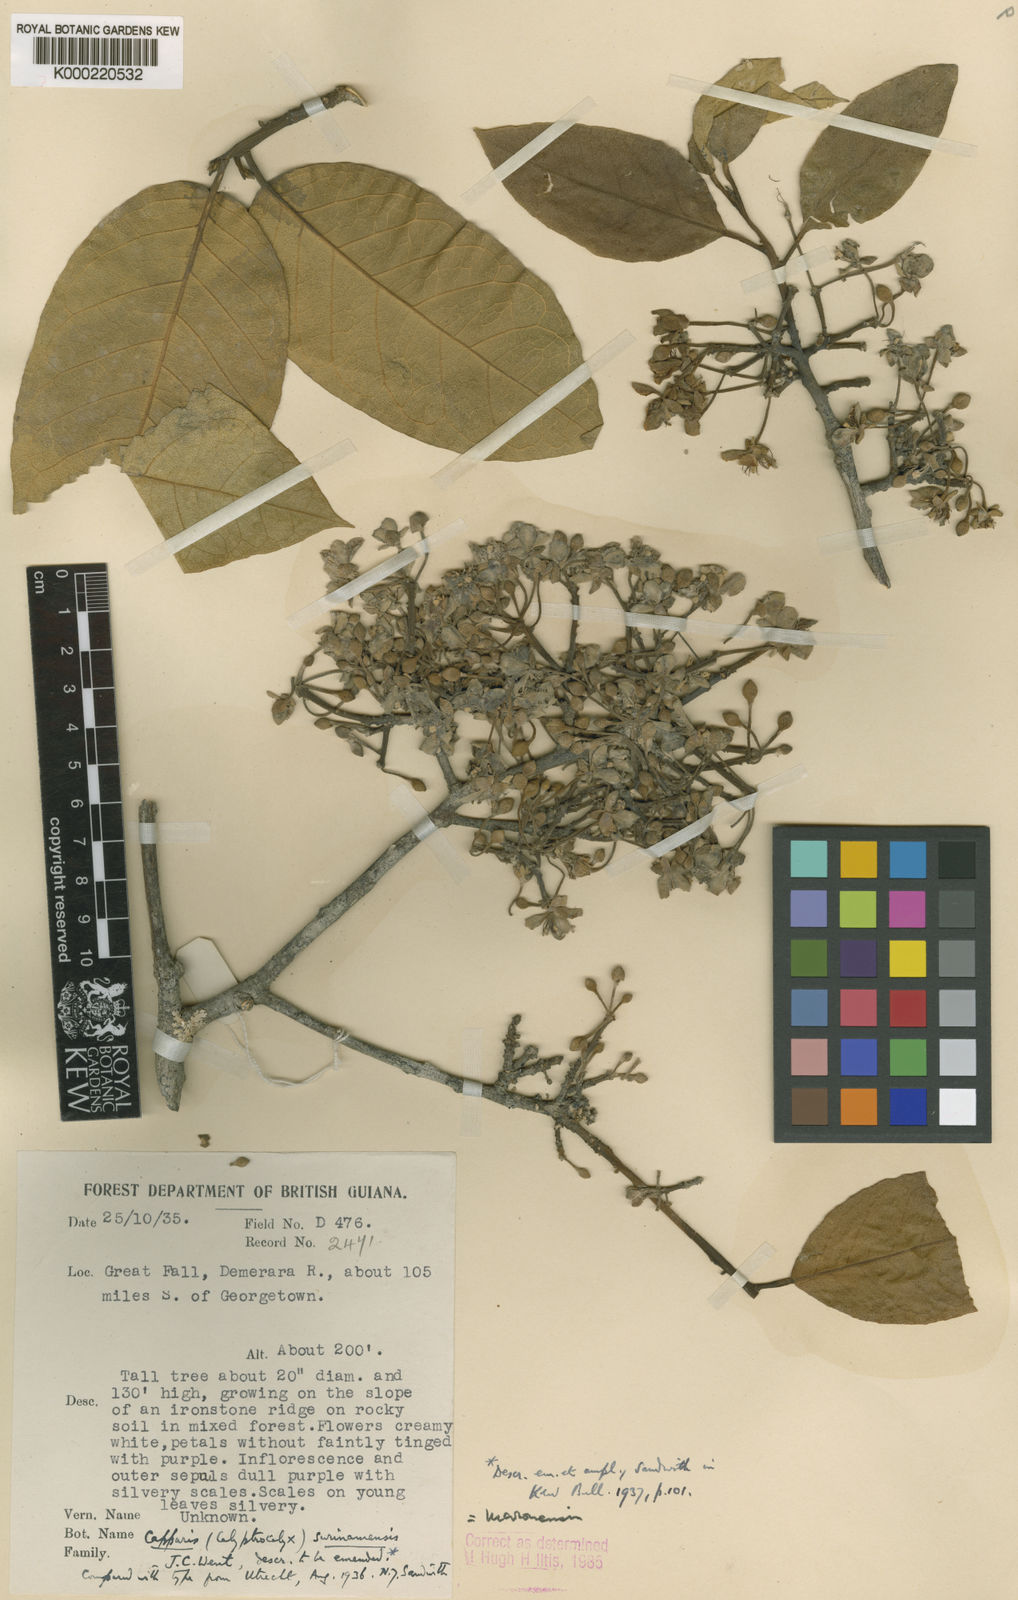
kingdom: Plantae
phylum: Tracheophyta
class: Magnoliopsida
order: Brassicales
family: Capparaceae
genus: Neocalyptrocalyx
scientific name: Neocalyptrocalyx maroniensis
